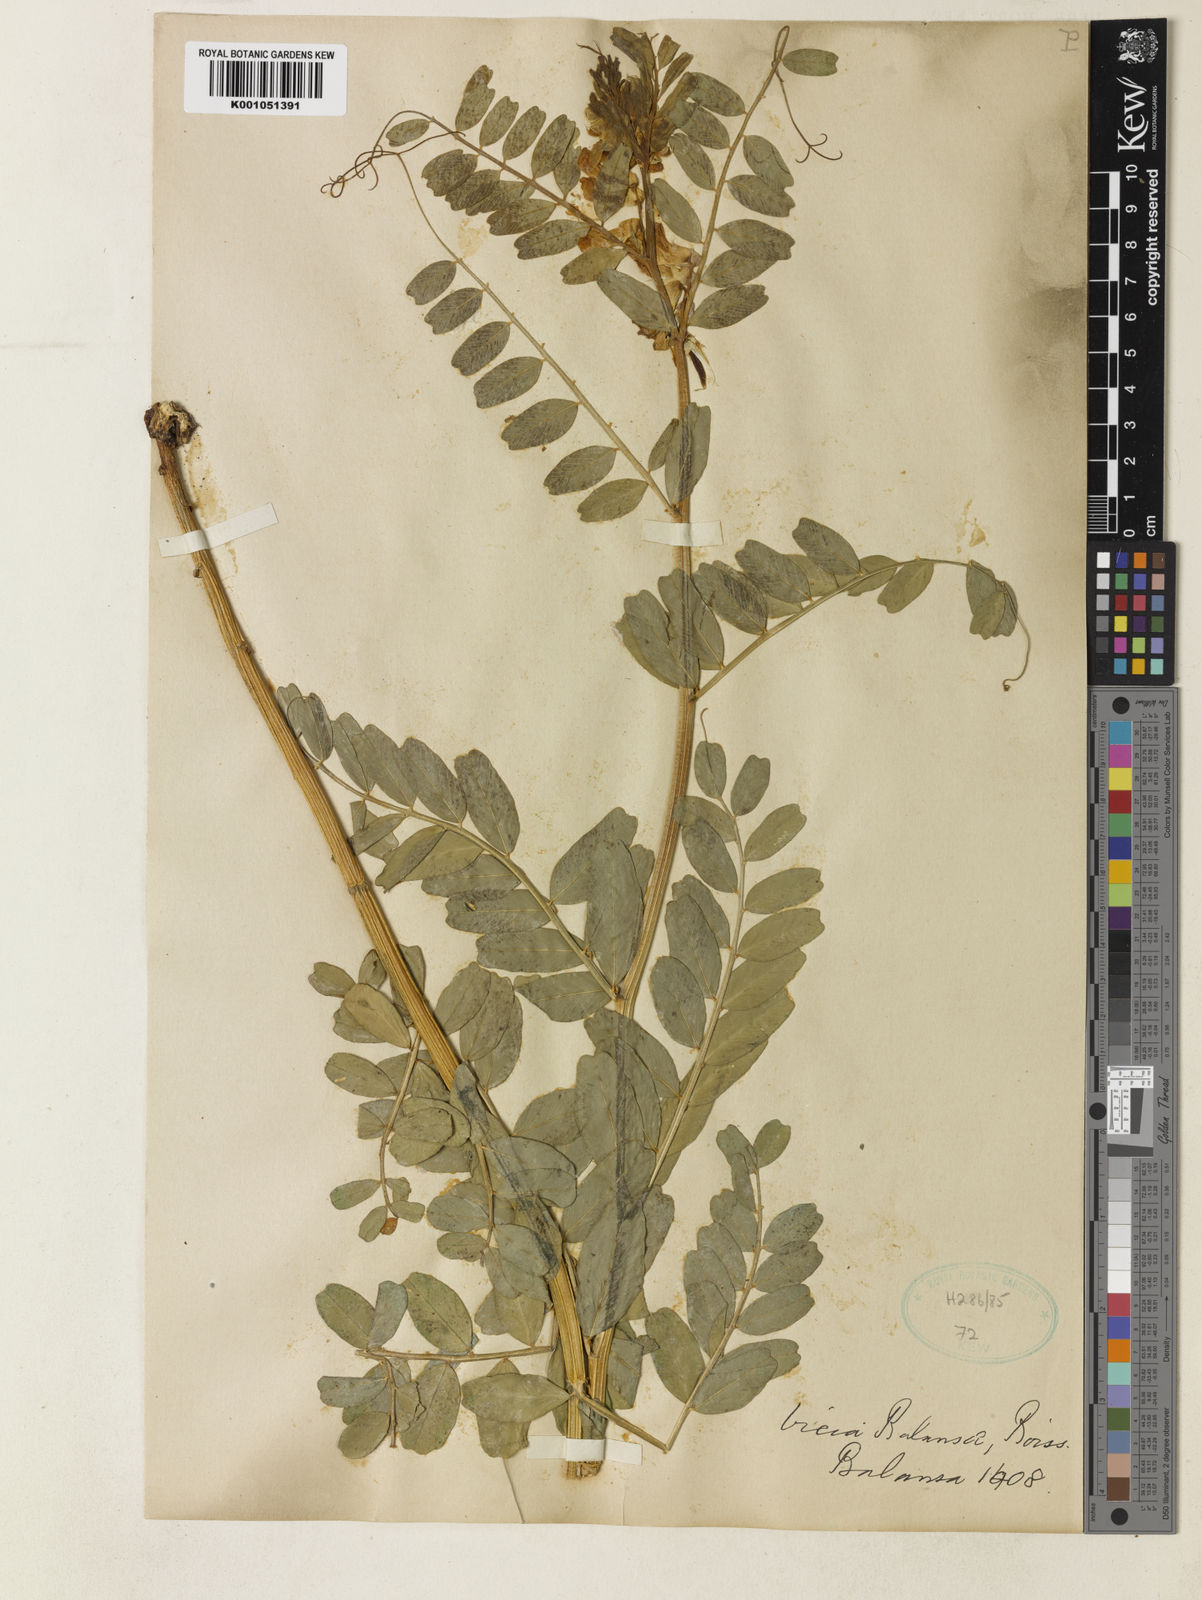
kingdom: Plantae
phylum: Tracheophyta
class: Magnoliopsida
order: Fabales
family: Fabaceae
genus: Vicia
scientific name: Vicia balansae
